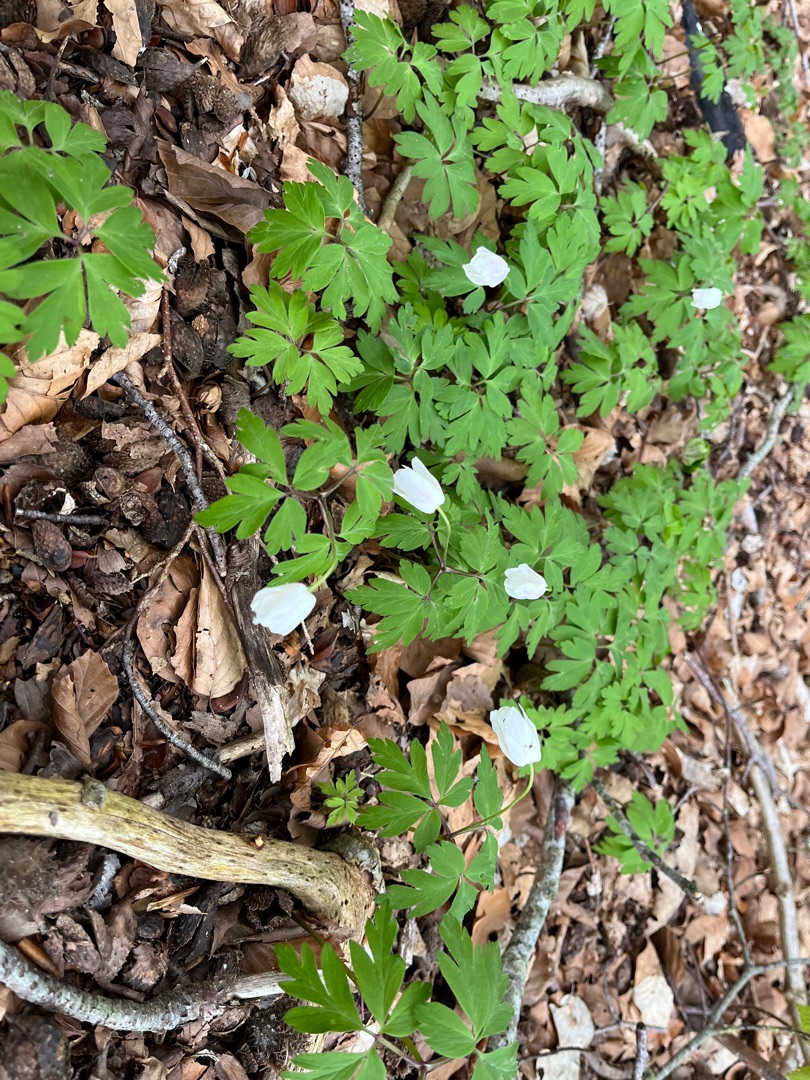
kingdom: Plantae
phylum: Tracheophyta
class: Magnoliopsida
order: Ranunculales
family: Ranunculaceae
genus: Anemone
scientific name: Anemone nemorosa
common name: Hvid anemone
